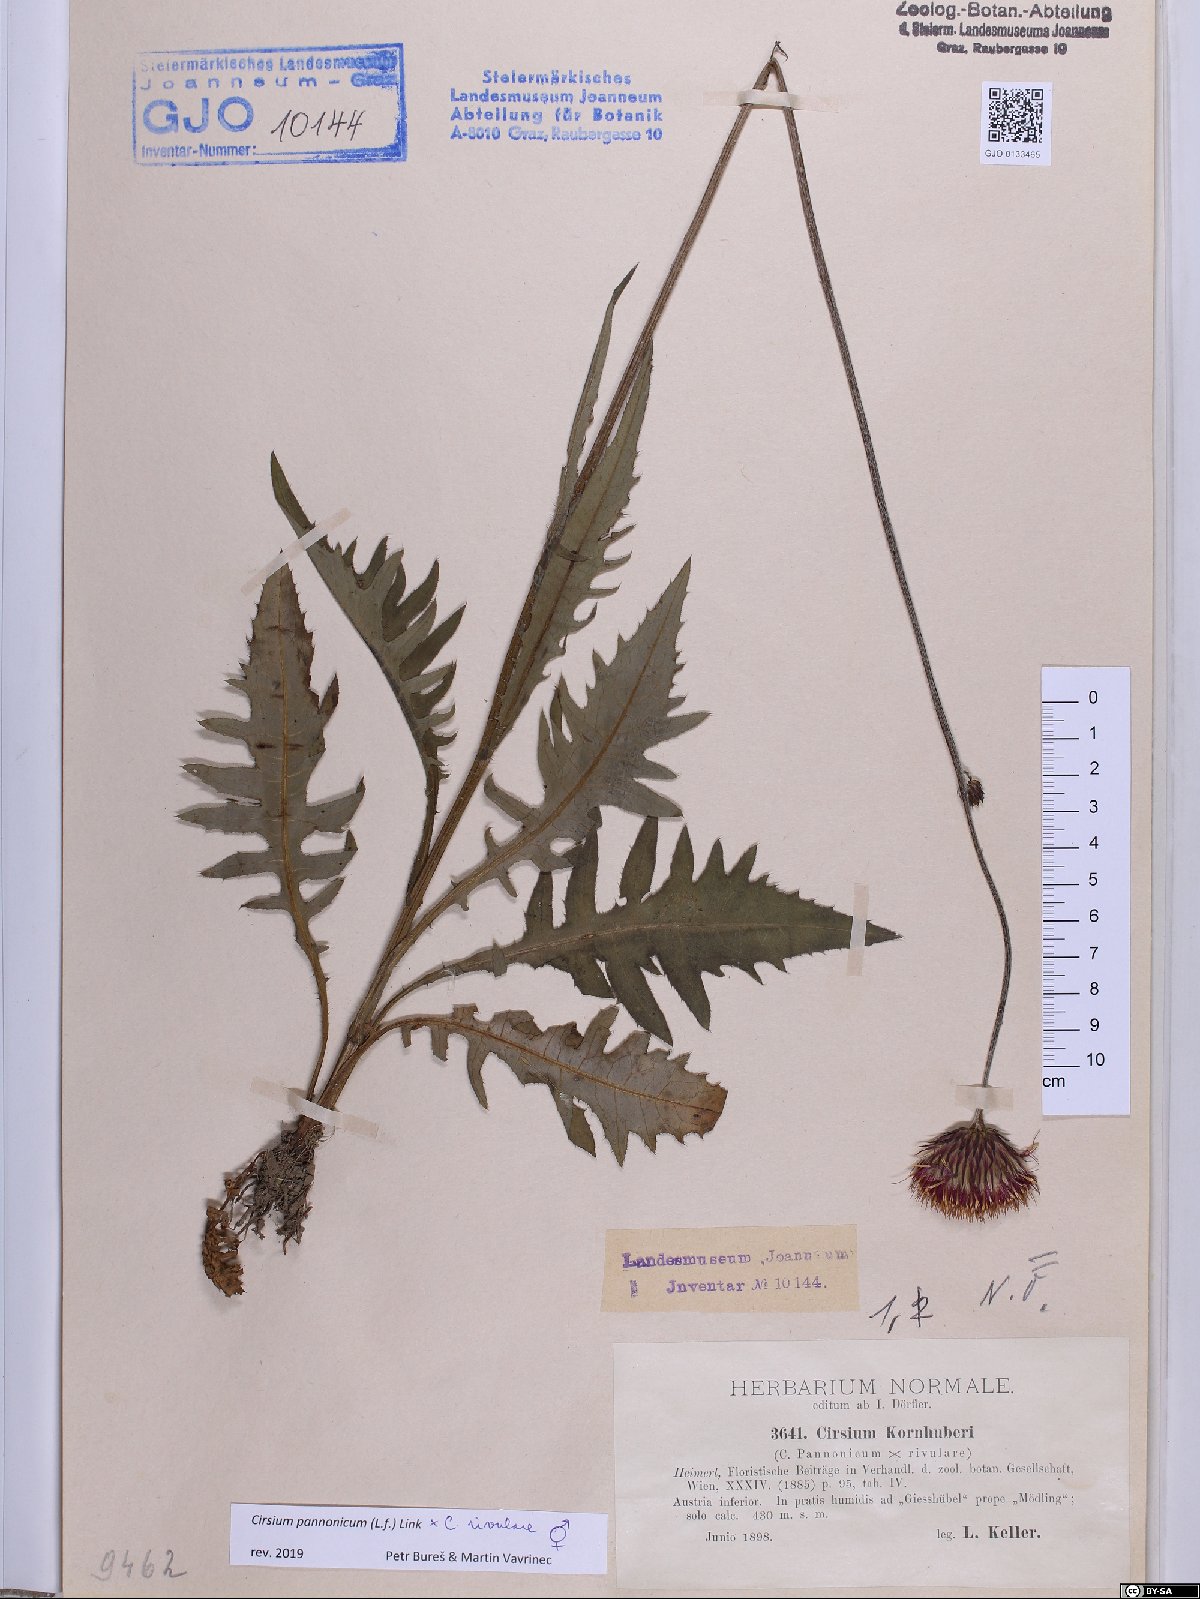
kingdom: Plantae
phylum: Tracheophyta
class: Magnoliopsida
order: Asterales
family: Asteraceae
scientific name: Asteraceae
